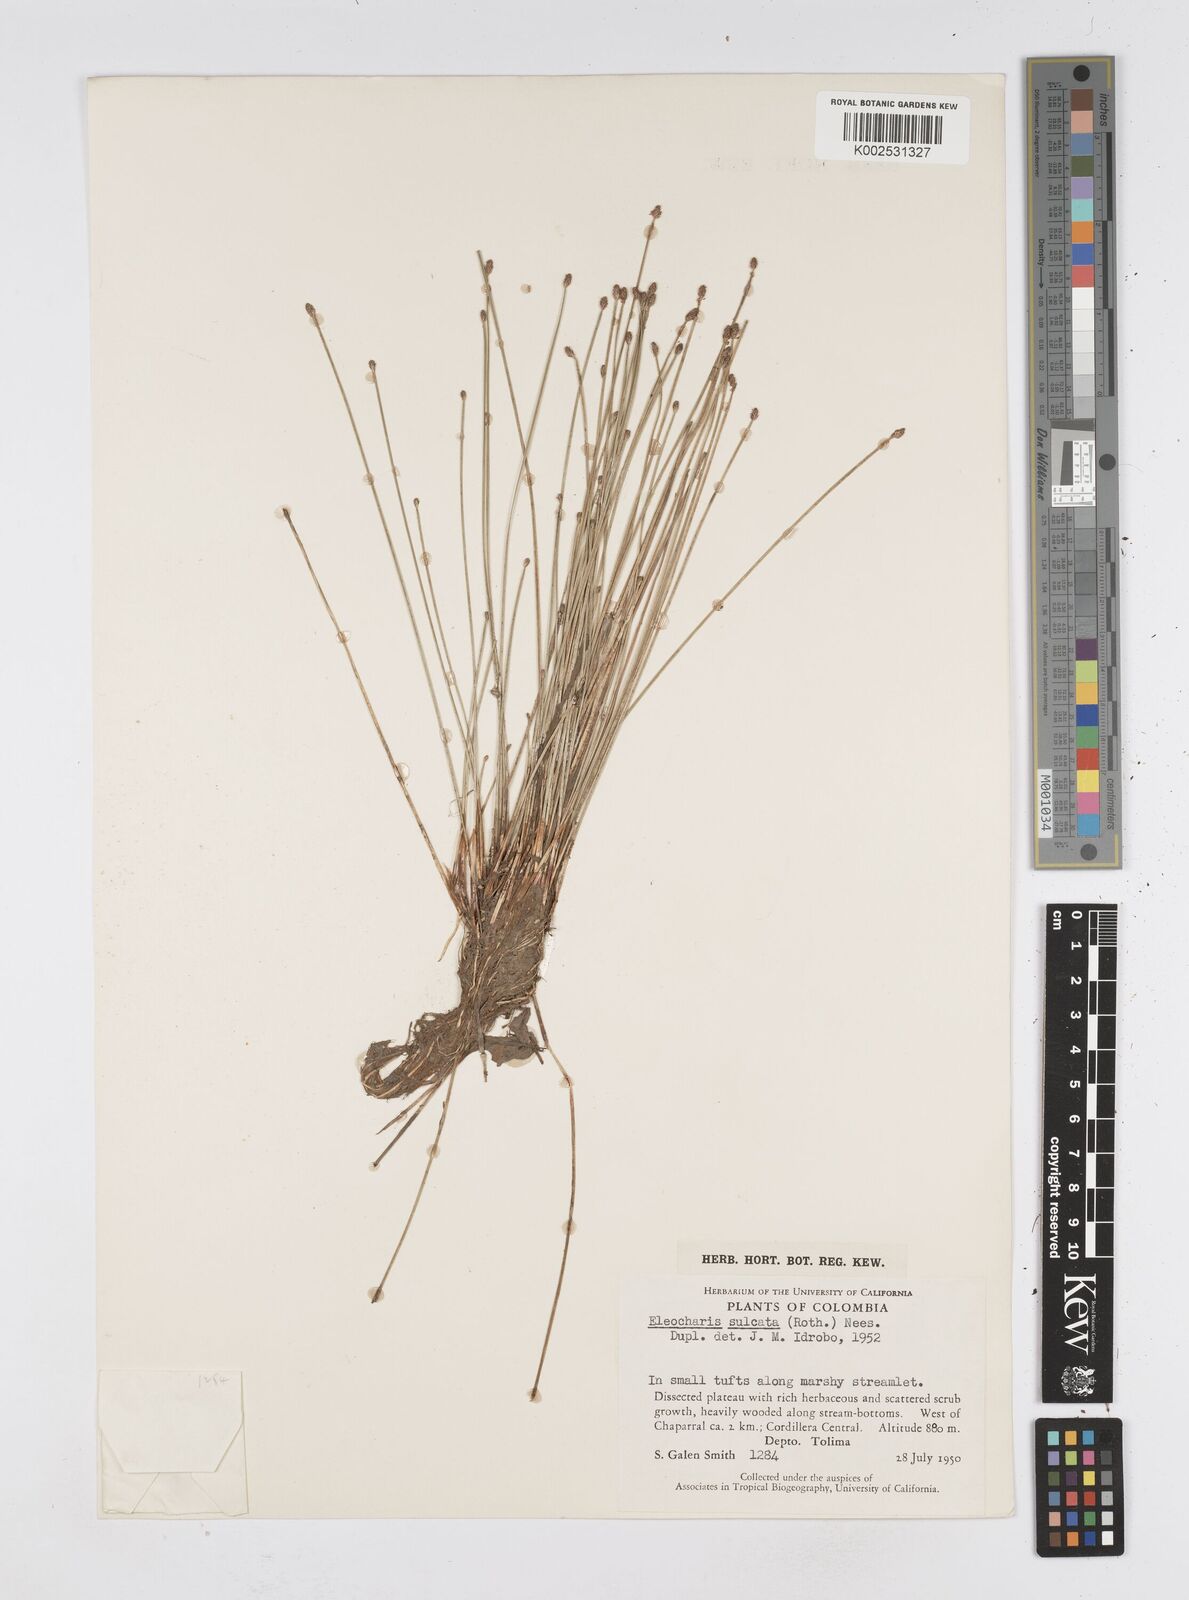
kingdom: Plantae
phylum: Tracheophyta
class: Liliopsida
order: Poales
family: Cyperaceae
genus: Eleocharis
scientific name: Eleocharis filiculmis
